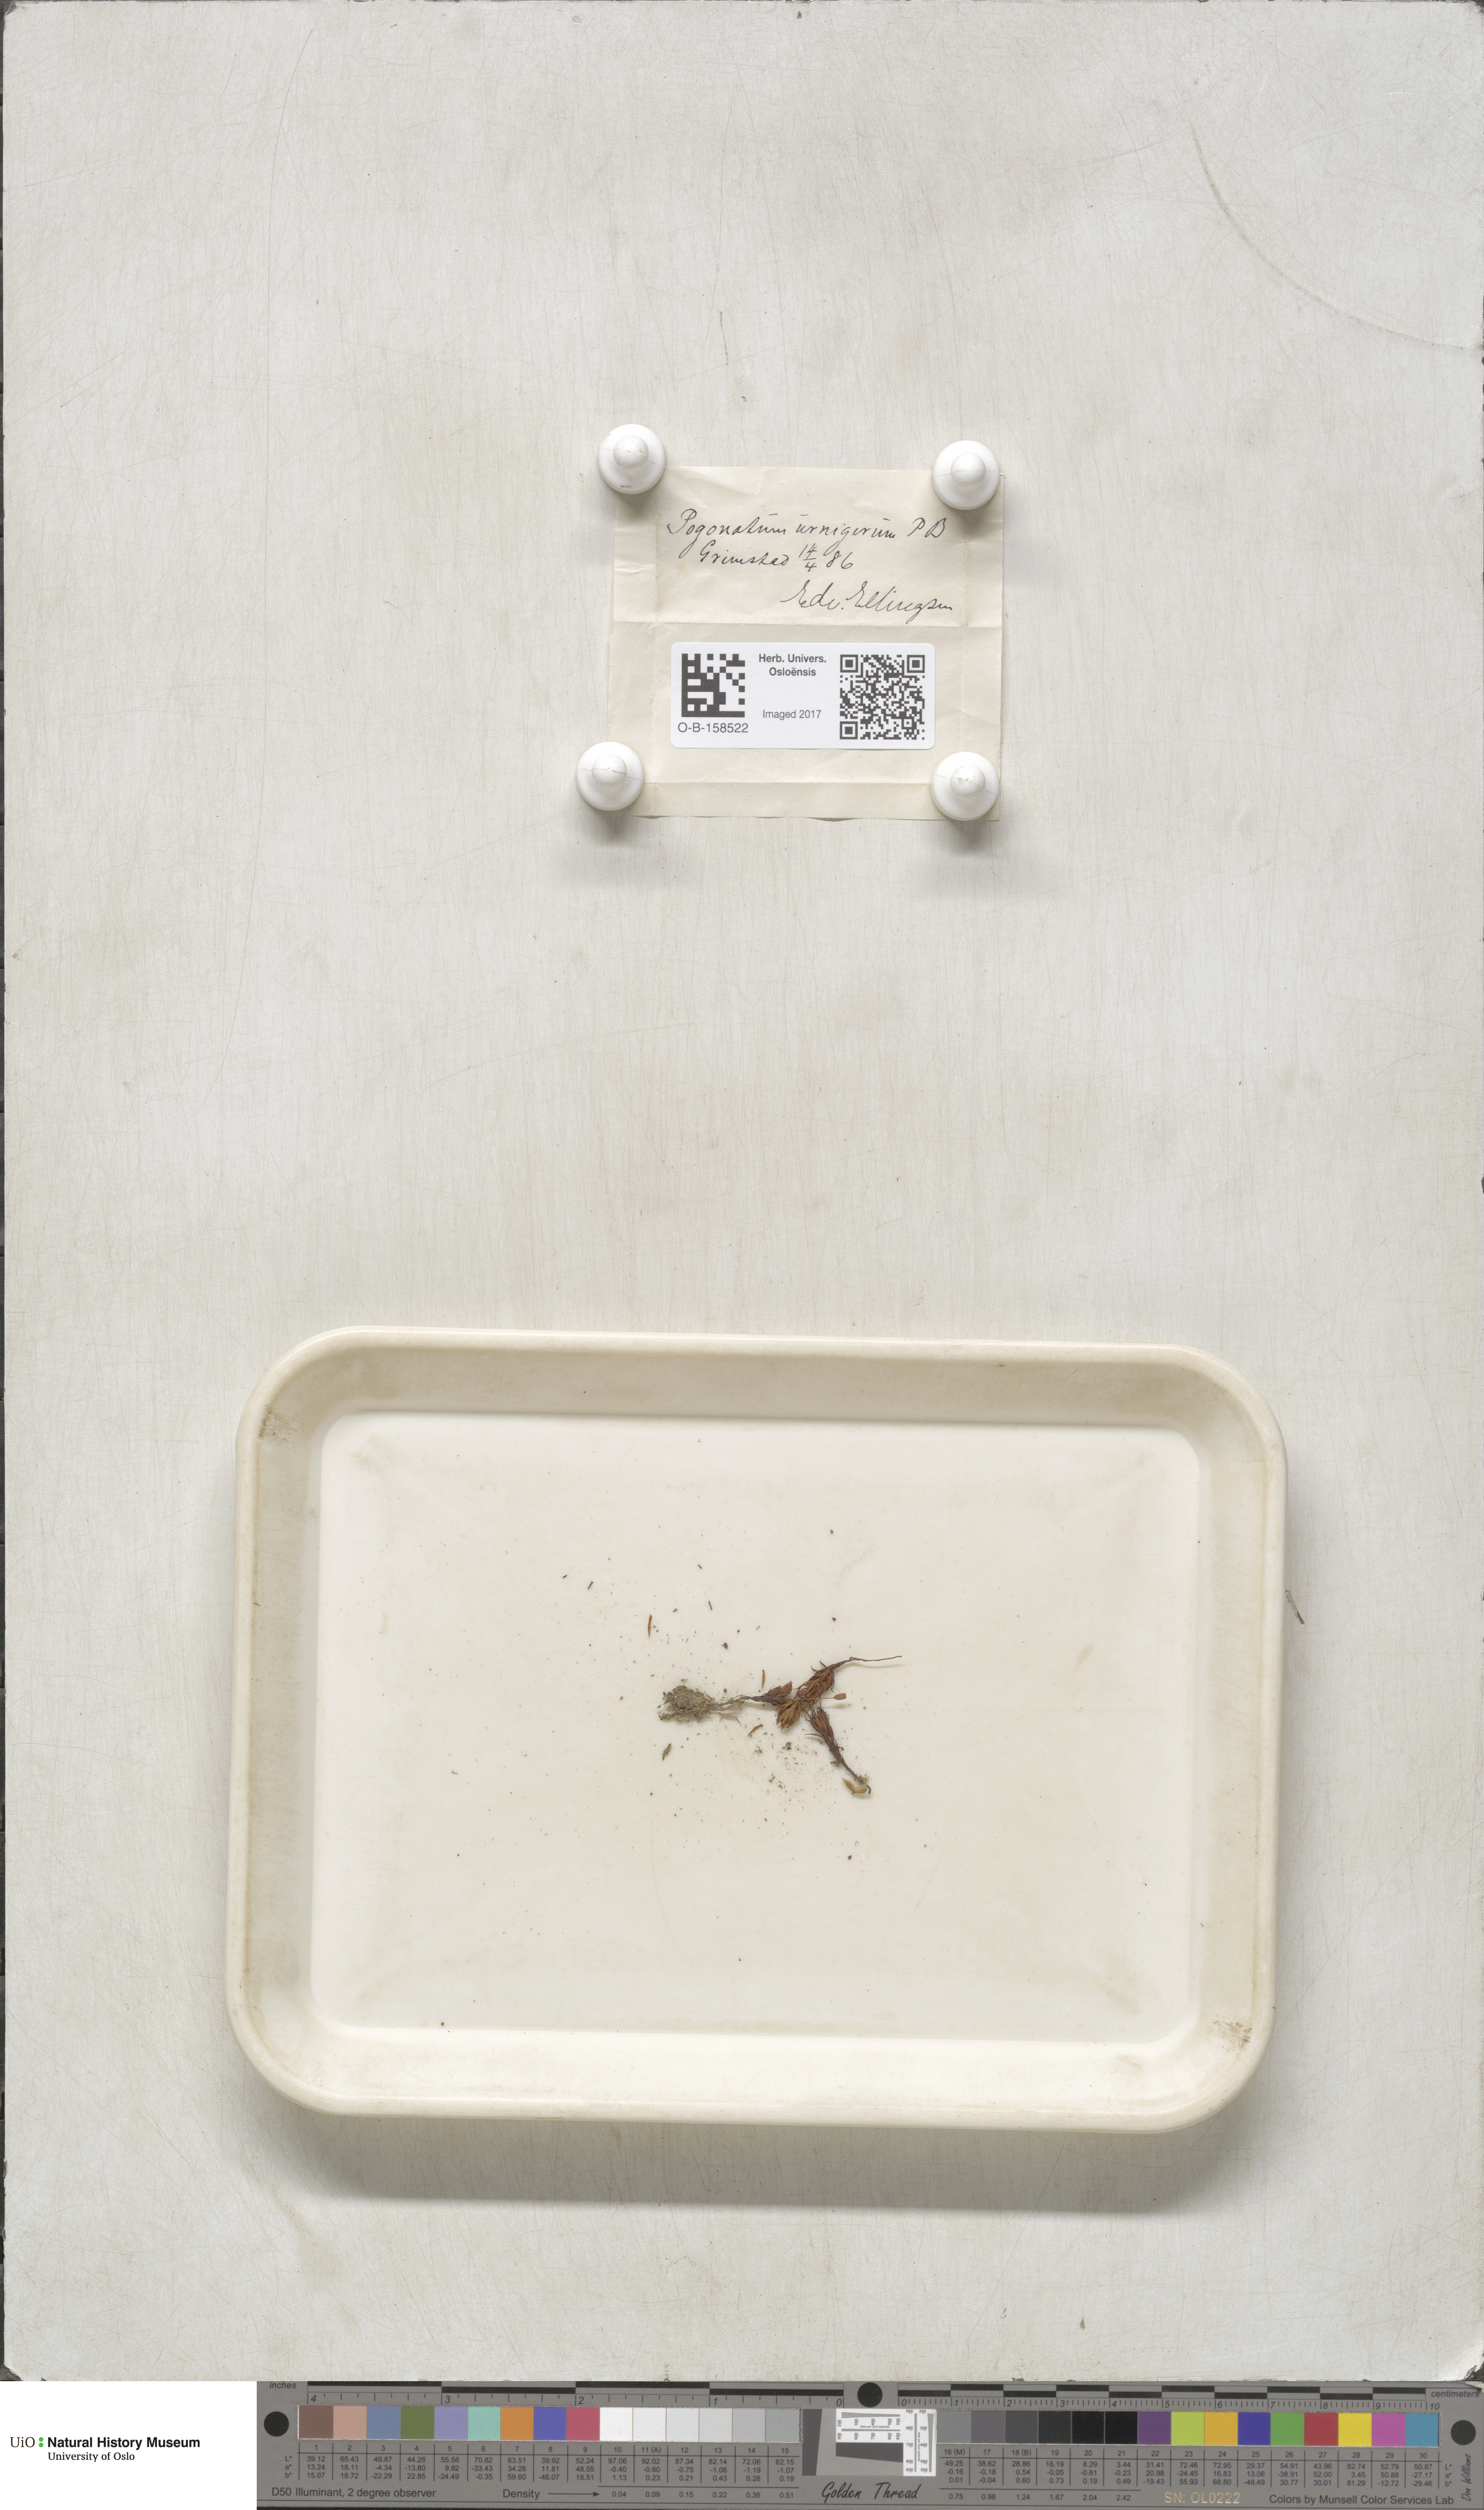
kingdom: Plantae
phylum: Bryophyta
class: Polytrichopsida
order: Polytrichales
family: Polytrichaceae
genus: Pogonatum
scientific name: Pogonatum urnigerum
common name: Urn hair moss
